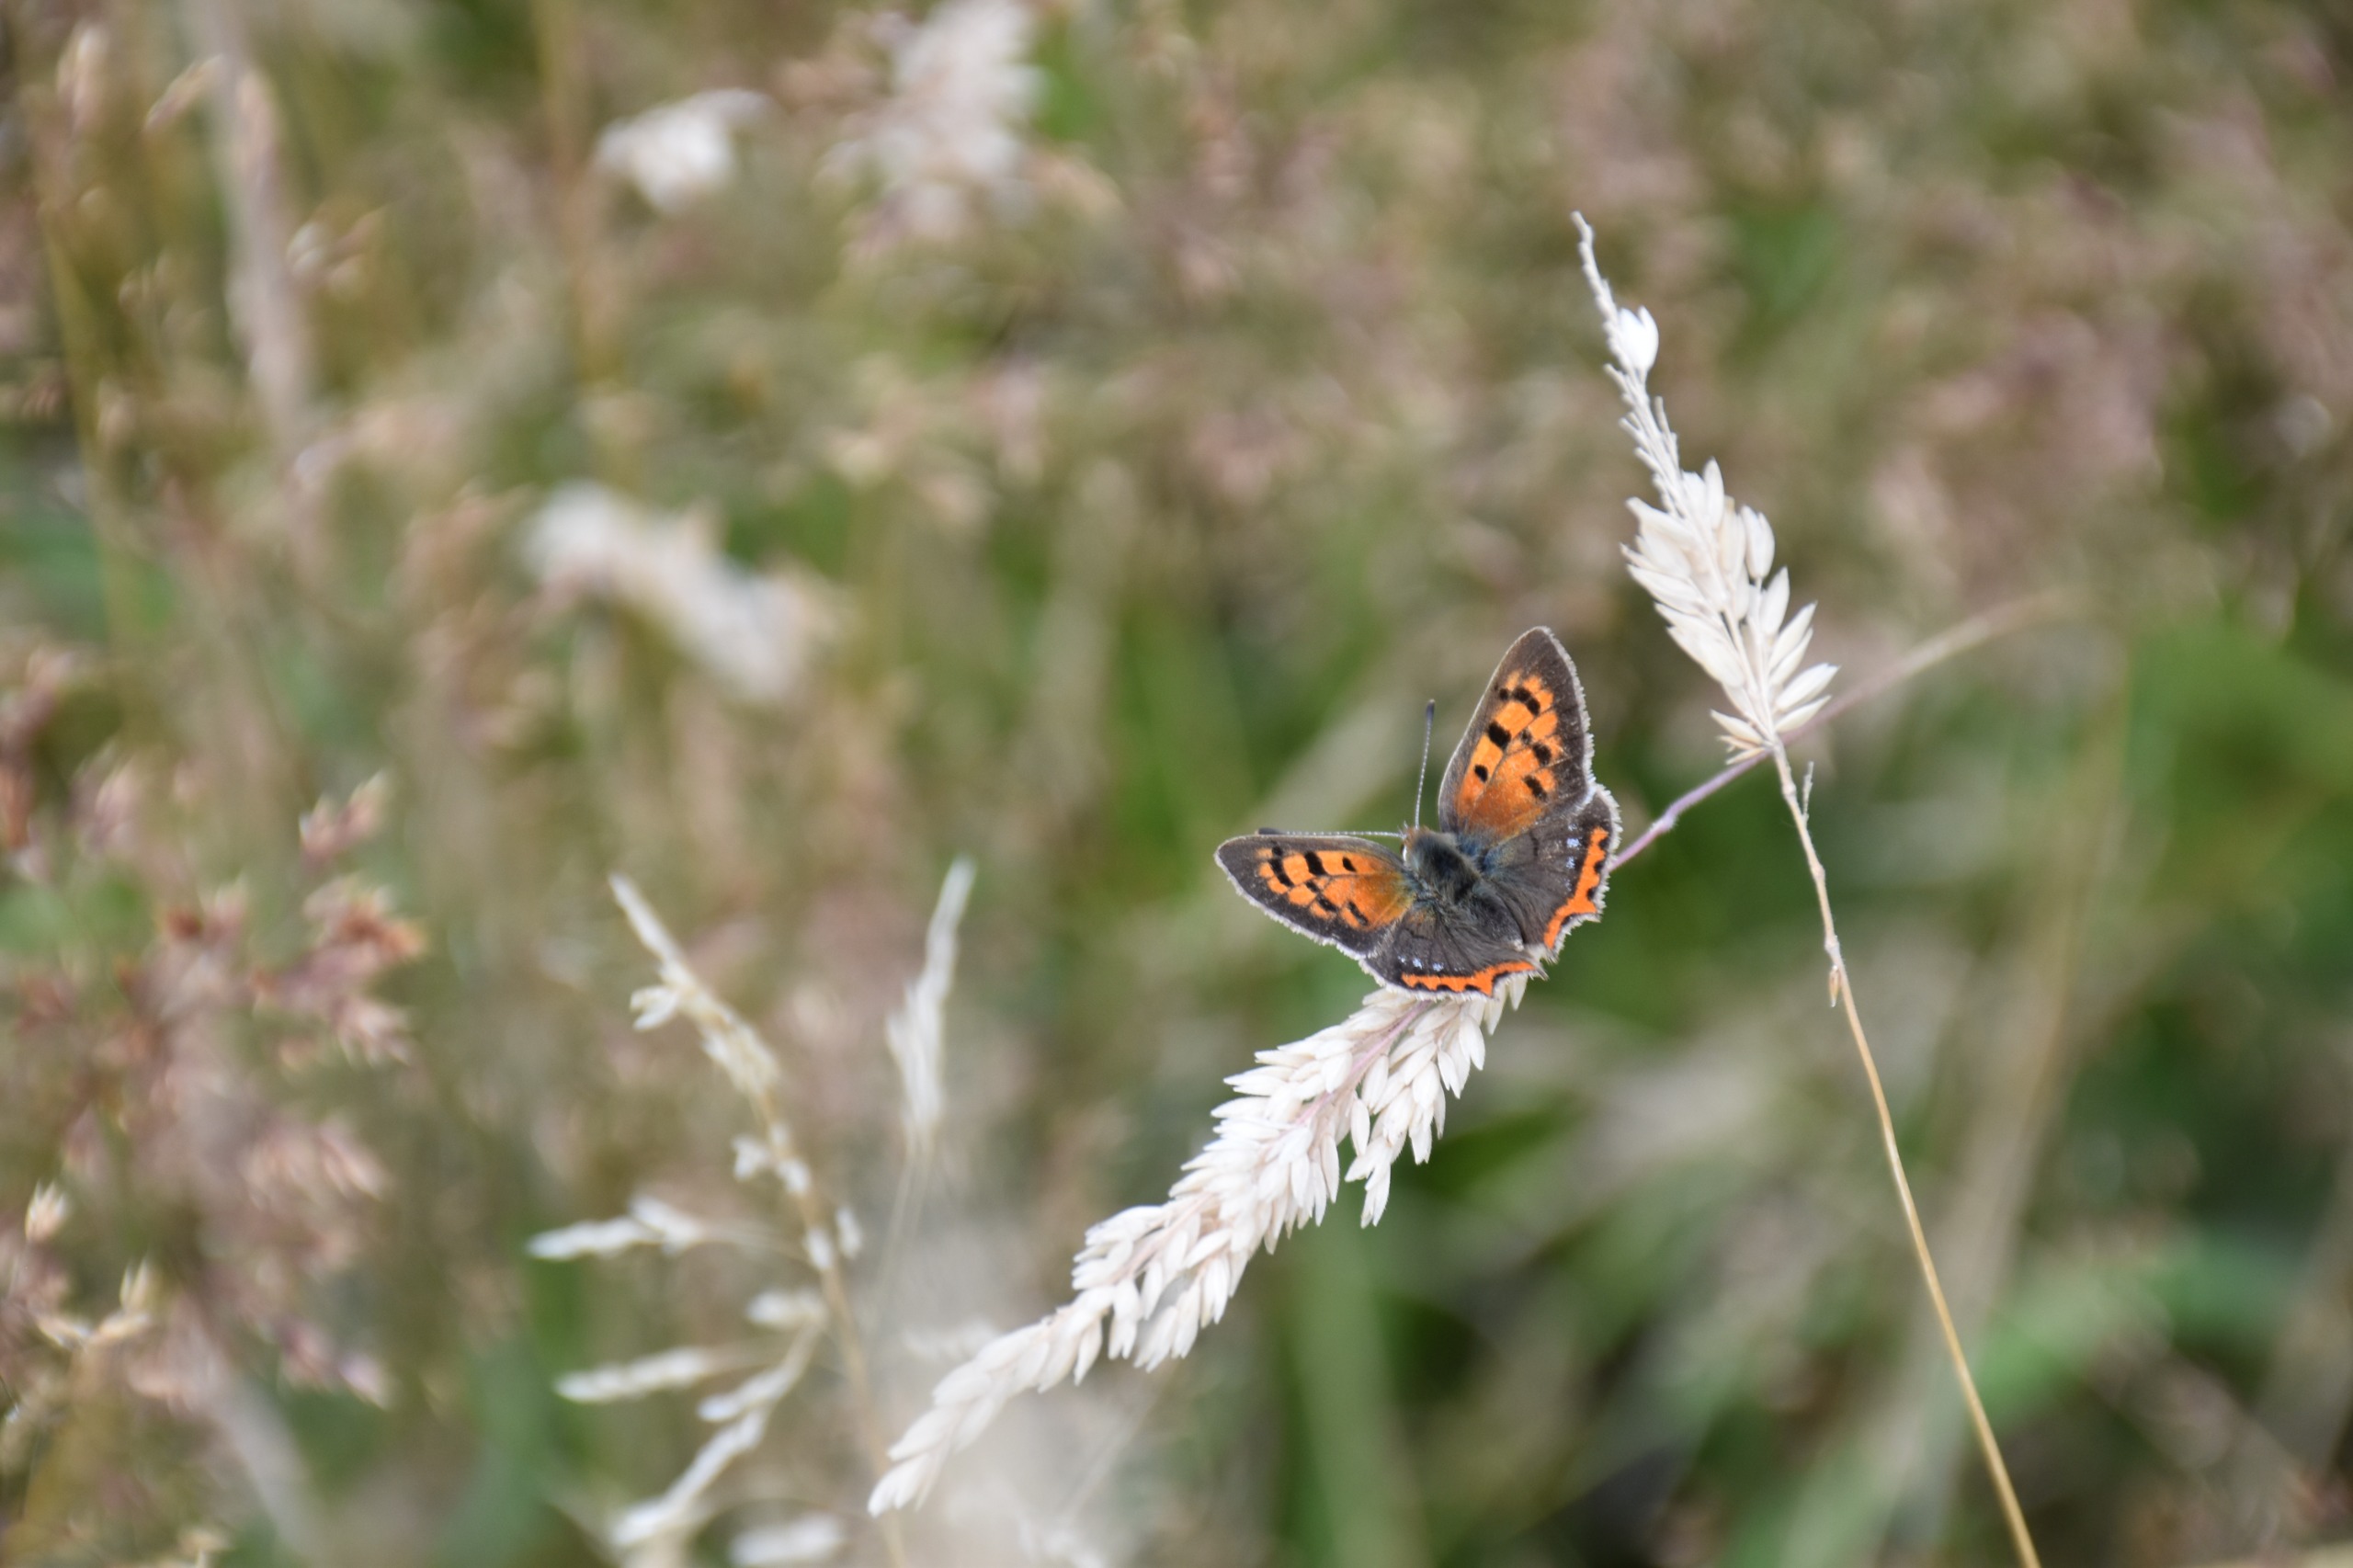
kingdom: Animalia
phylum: Arthropoda
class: Insecta
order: Lepidoptera
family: Lycaenidae
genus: Lycaena
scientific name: Lycaena phlaeas
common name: Lille ildfugl
